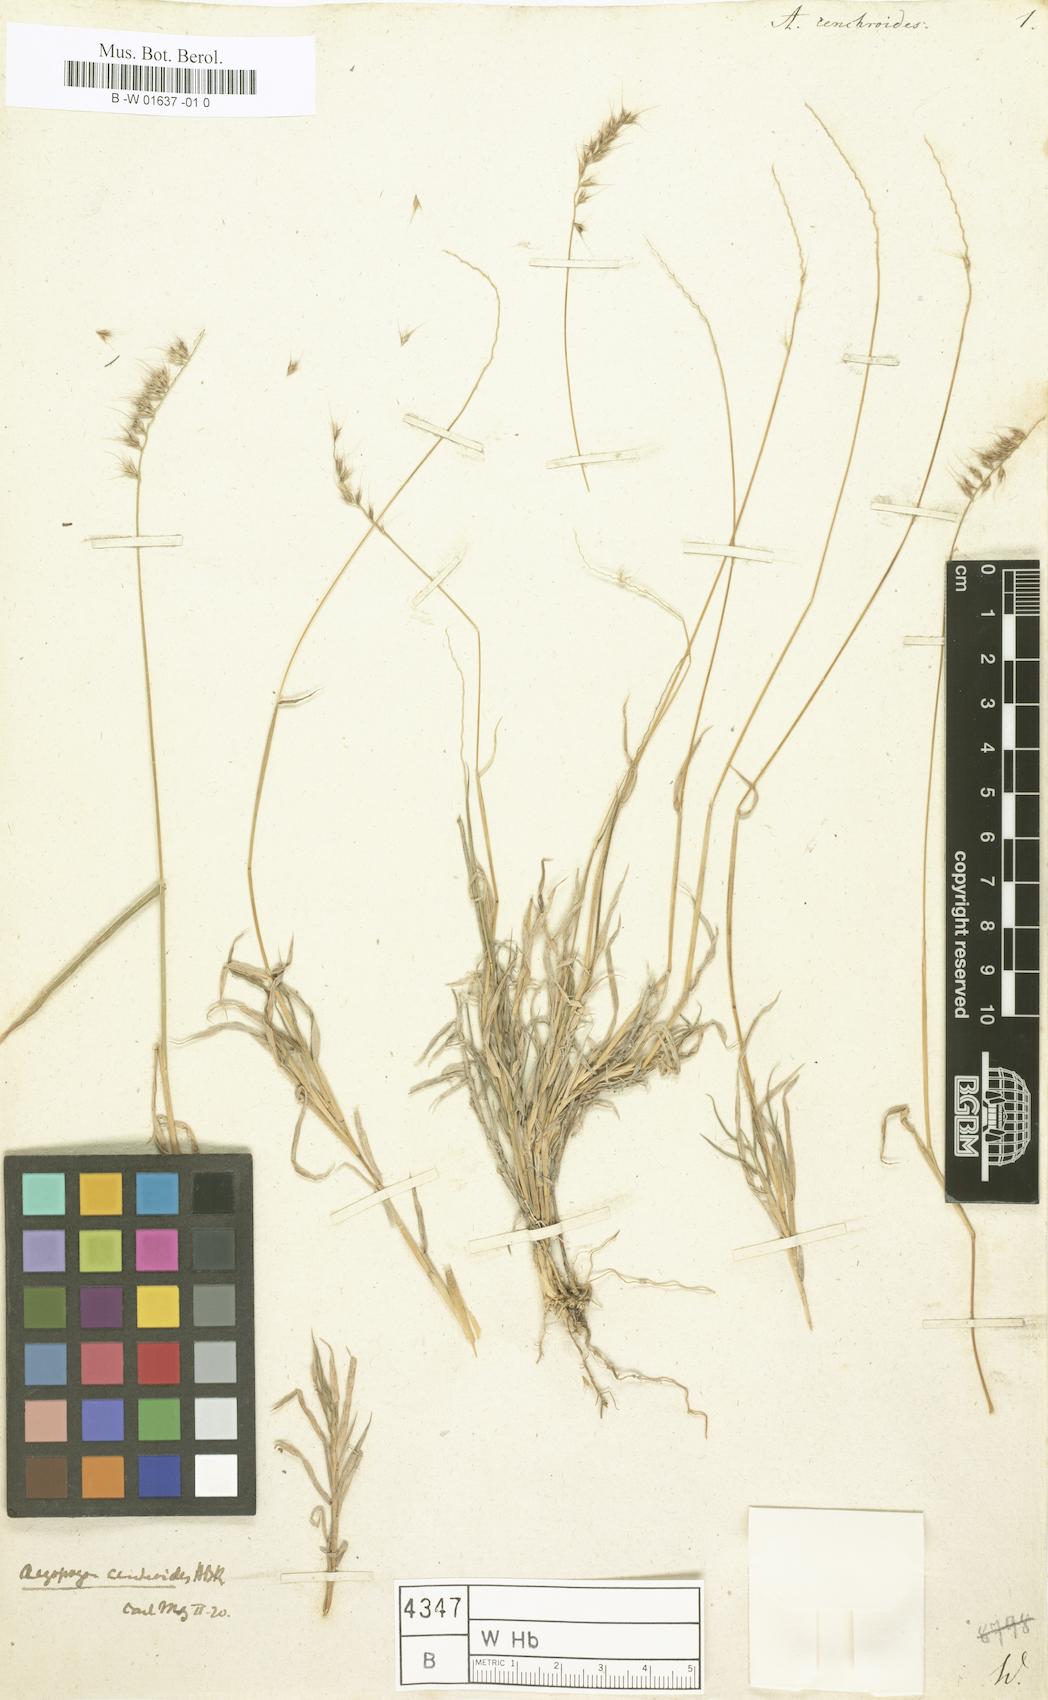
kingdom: Plantae
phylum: Tracheophyta
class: Liliopsida
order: Poales
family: Poaceae
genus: Muhlenbergia
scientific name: Muhlenbergia cenchroides
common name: Relaxgrass
